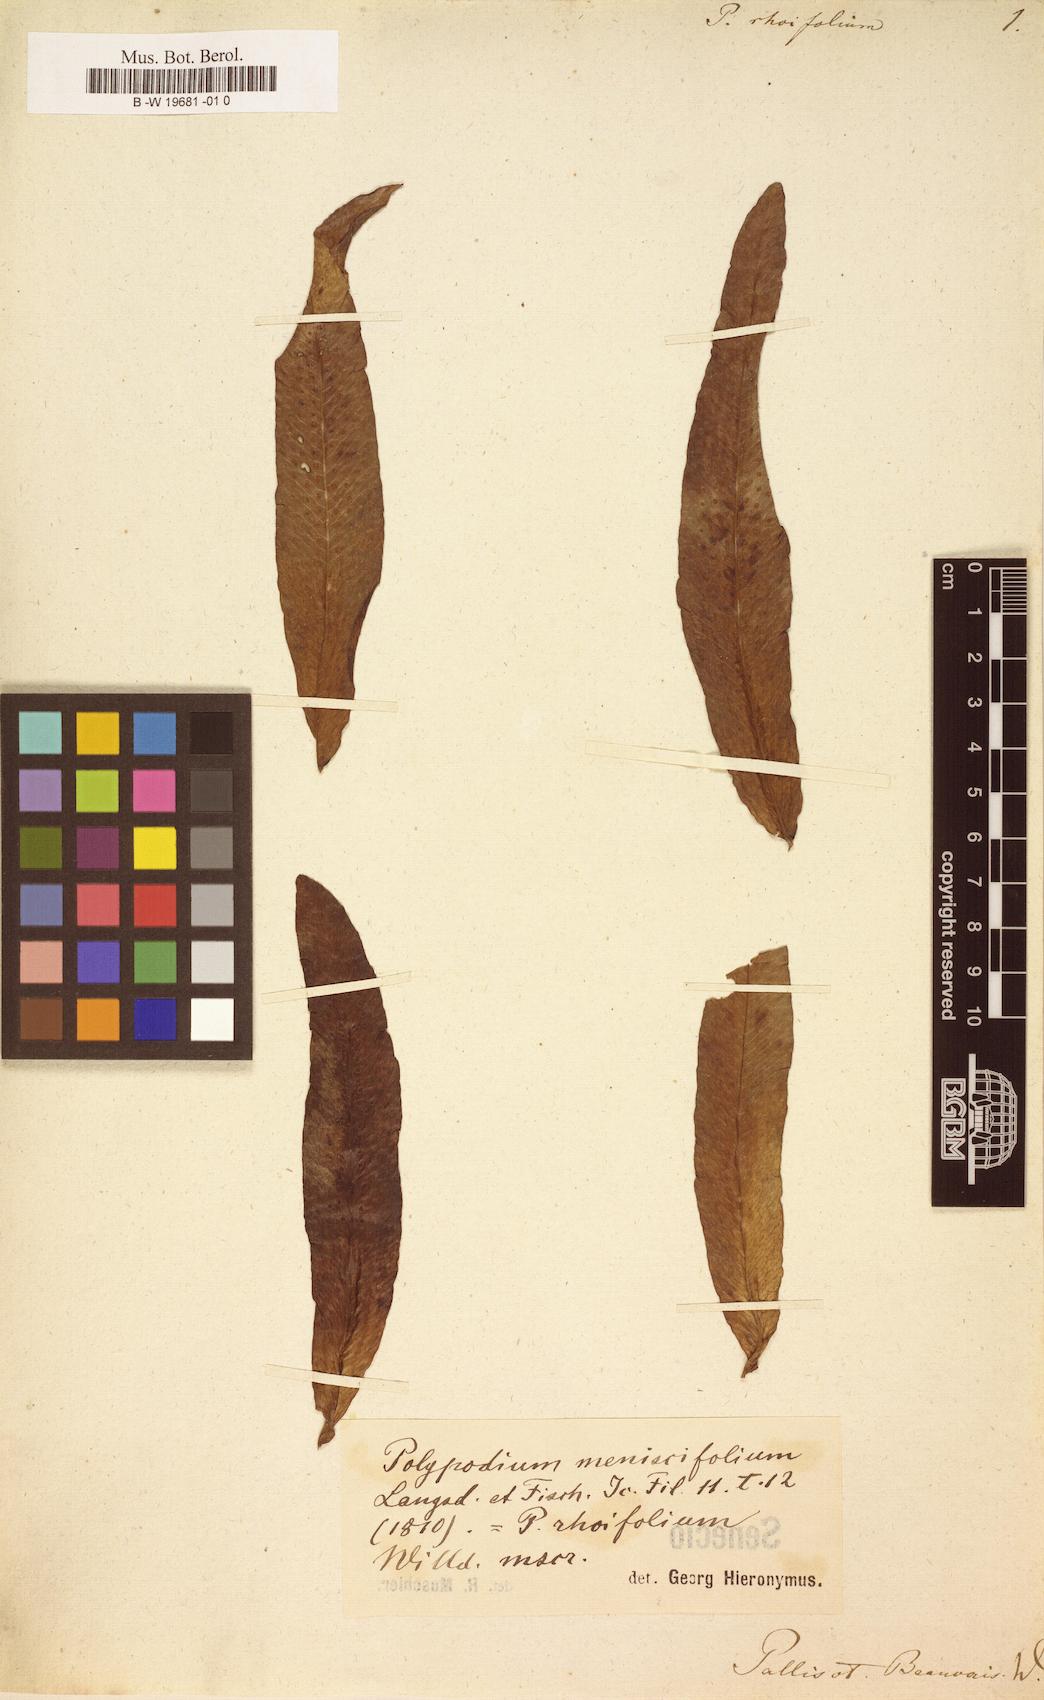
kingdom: Plantae
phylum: Tracheophyta
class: Polypodiopsida
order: Polypodiales
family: Polypodiaceae
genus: Polypodium
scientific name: Polypodium
